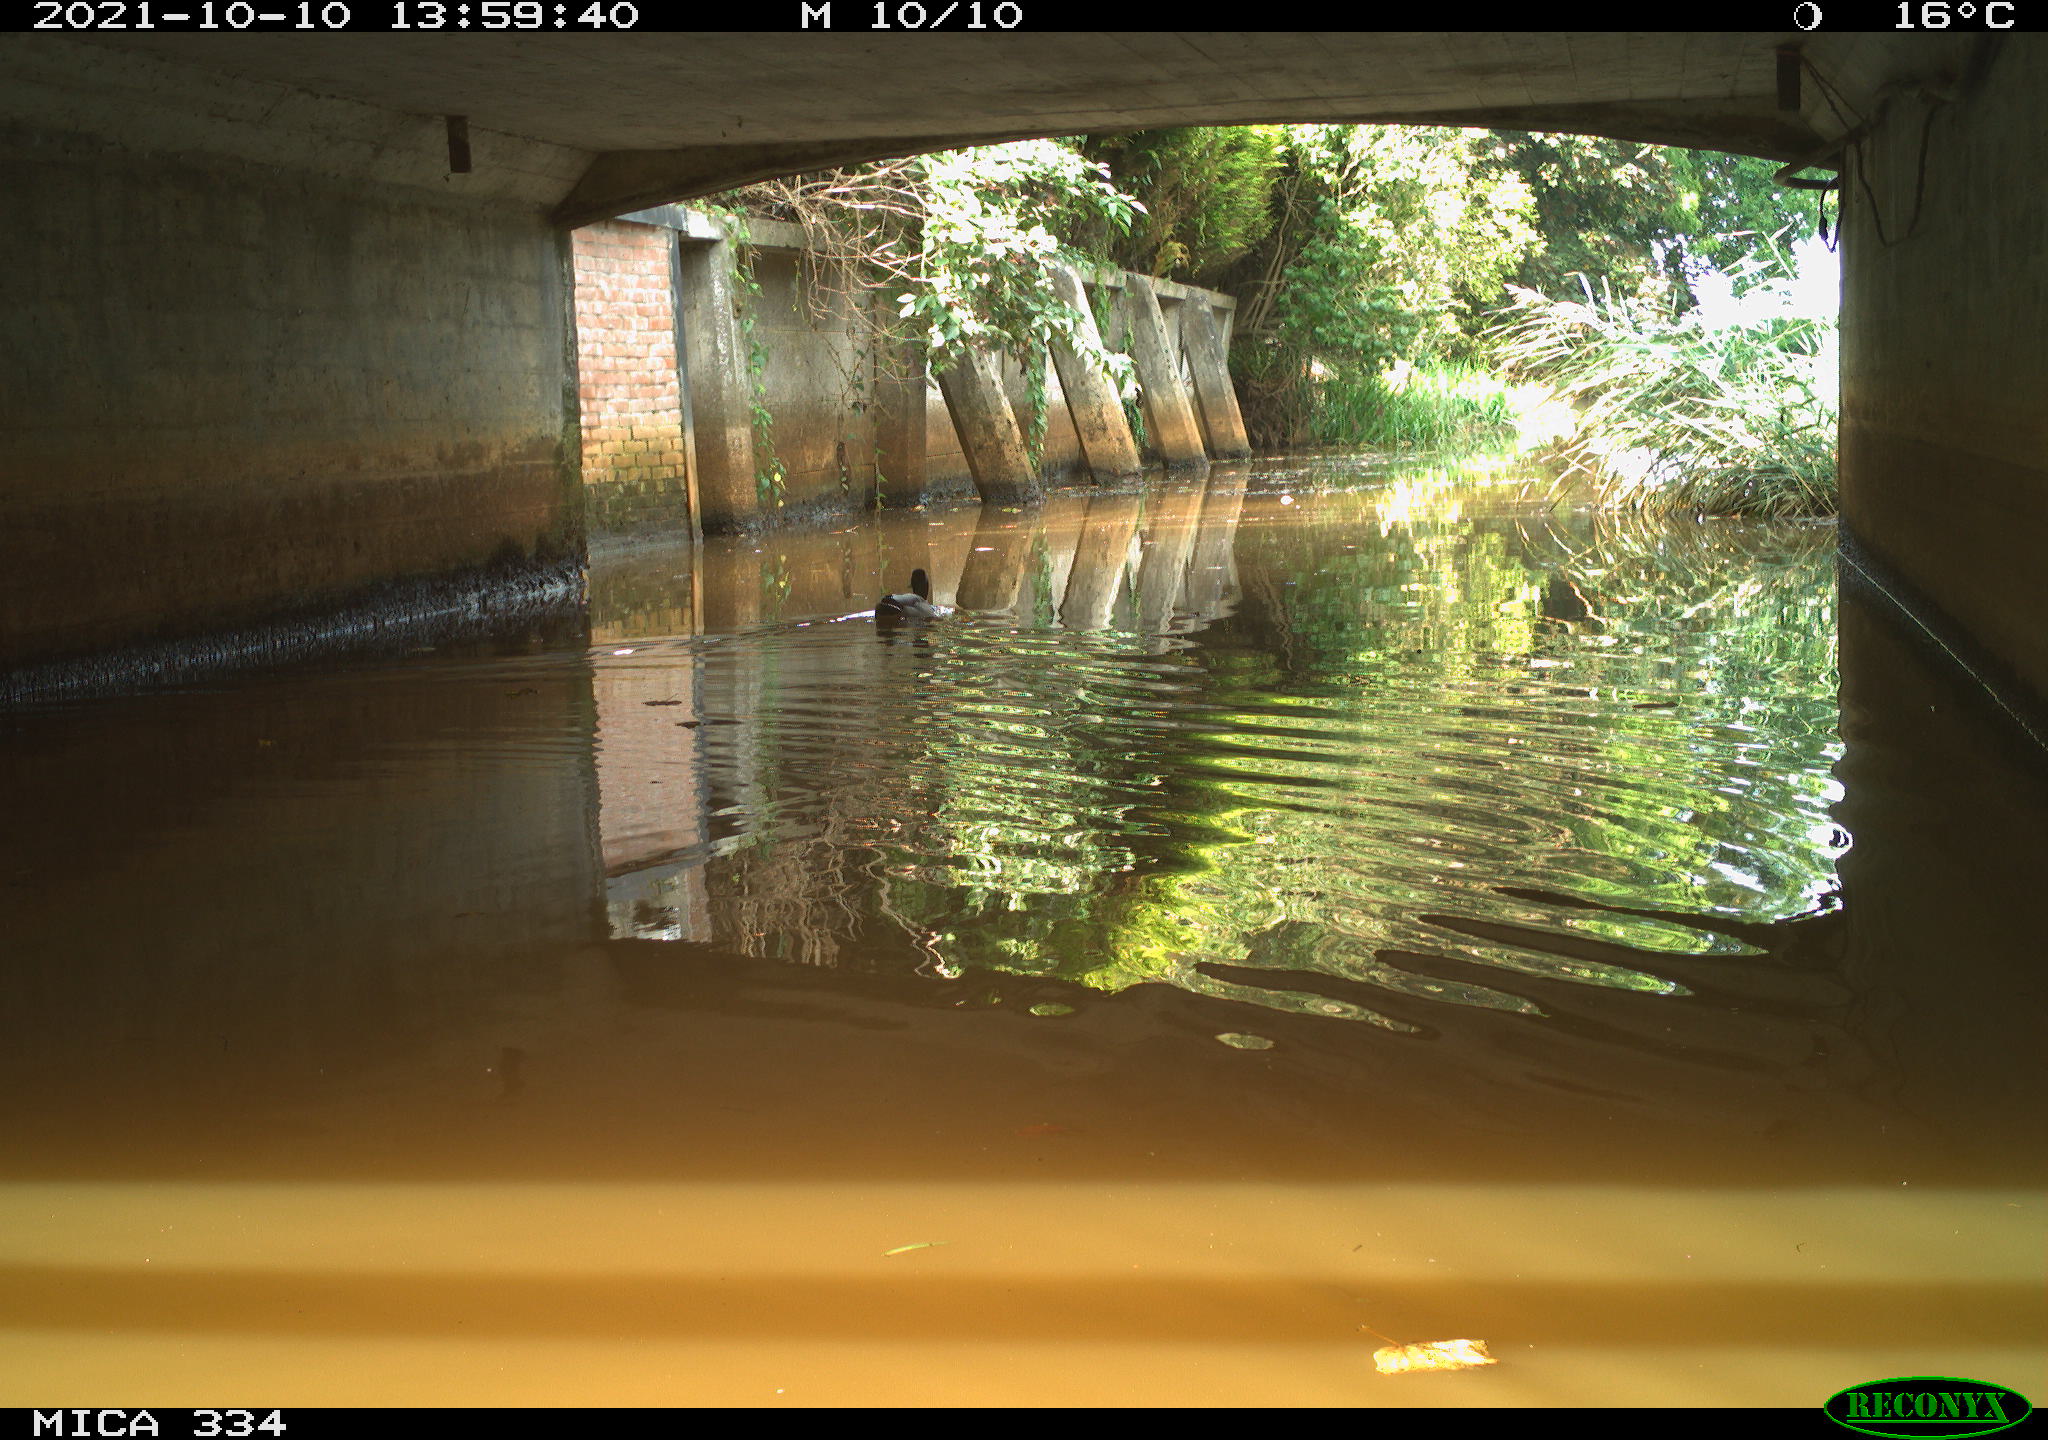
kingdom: Animalia
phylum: Chordata
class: Aves
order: Anseriformes
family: Anatidae
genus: Anas
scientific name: Anas platyrhynchos
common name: Mallard
